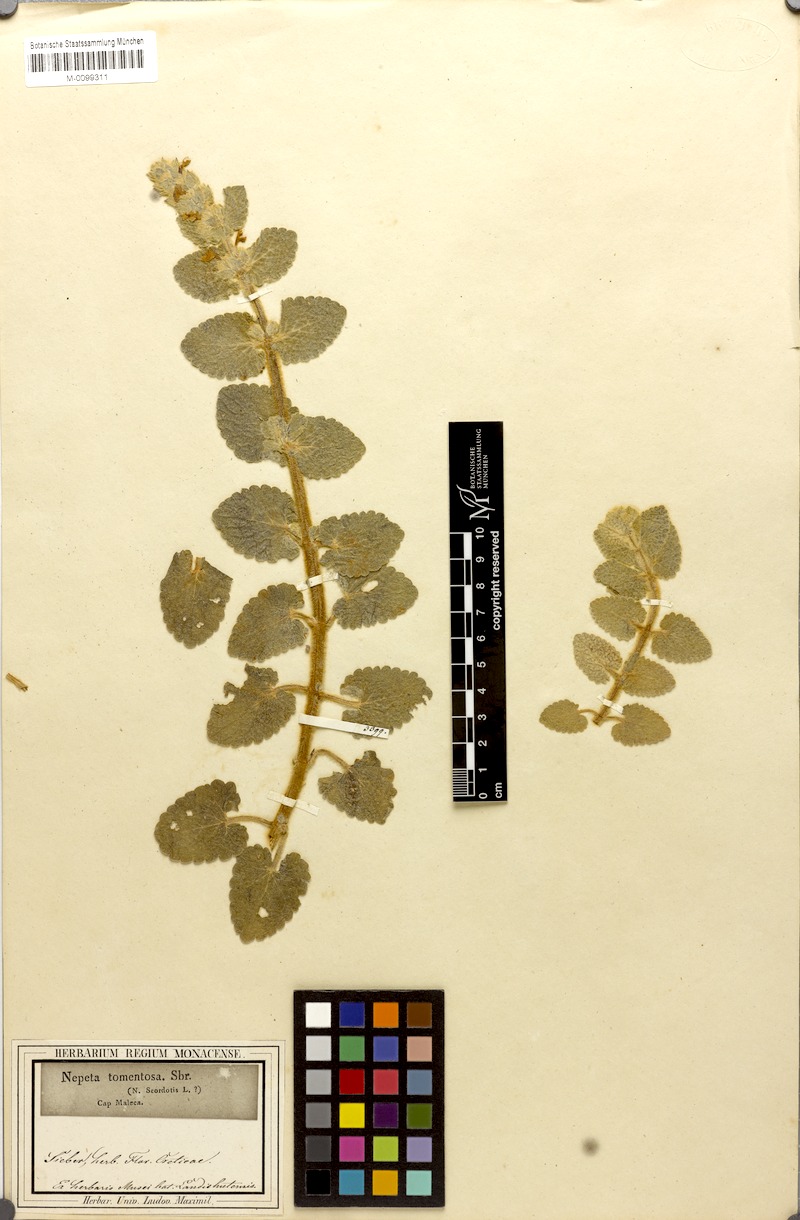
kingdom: Plantae
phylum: Tracheophyta
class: Magnoliopsida
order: Lamiales
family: Lamiaceae
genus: Nepeta
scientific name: Nepeta scordotis
